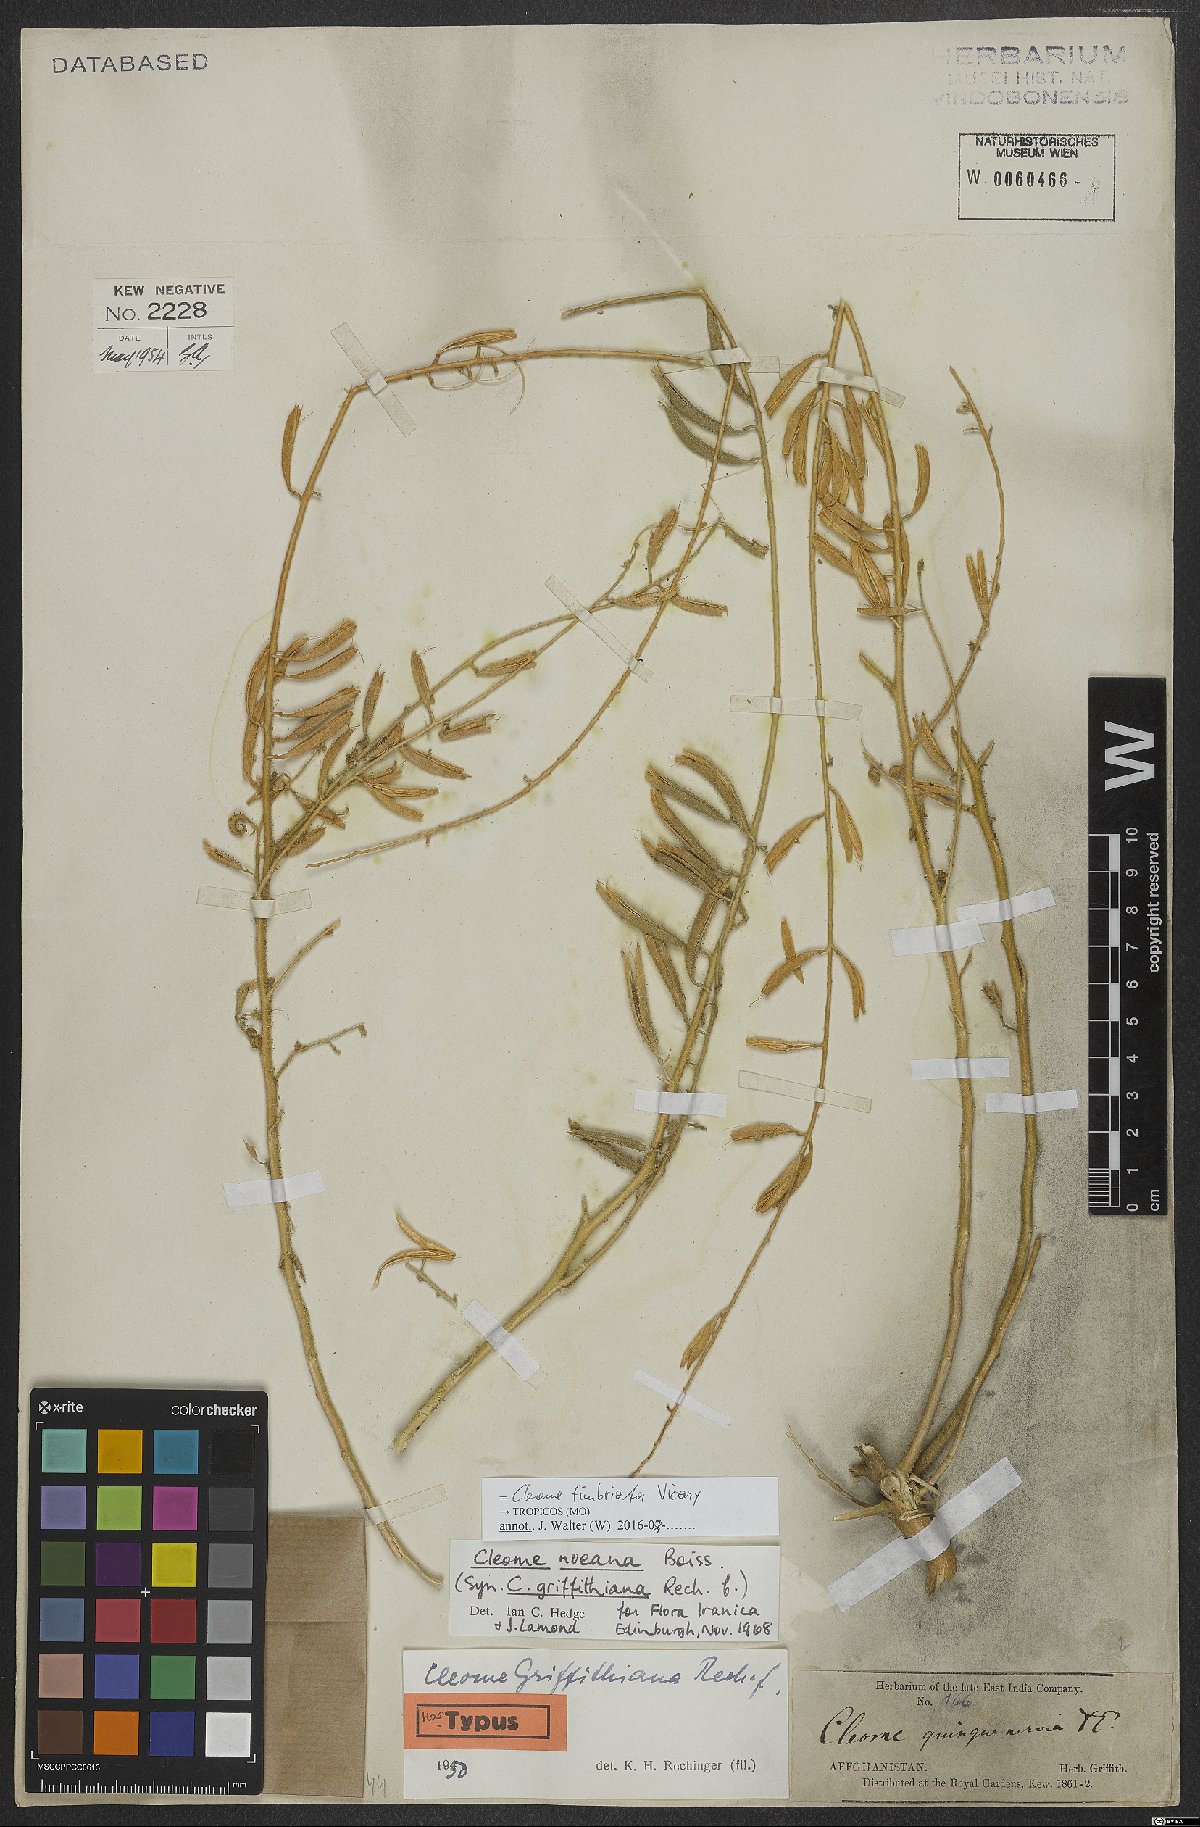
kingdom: Plantae
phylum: Tracheophyta
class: Magnoliopsida
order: Brassicales
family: Cleomaceae
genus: Rorida
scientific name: Rorida quinquenervia
